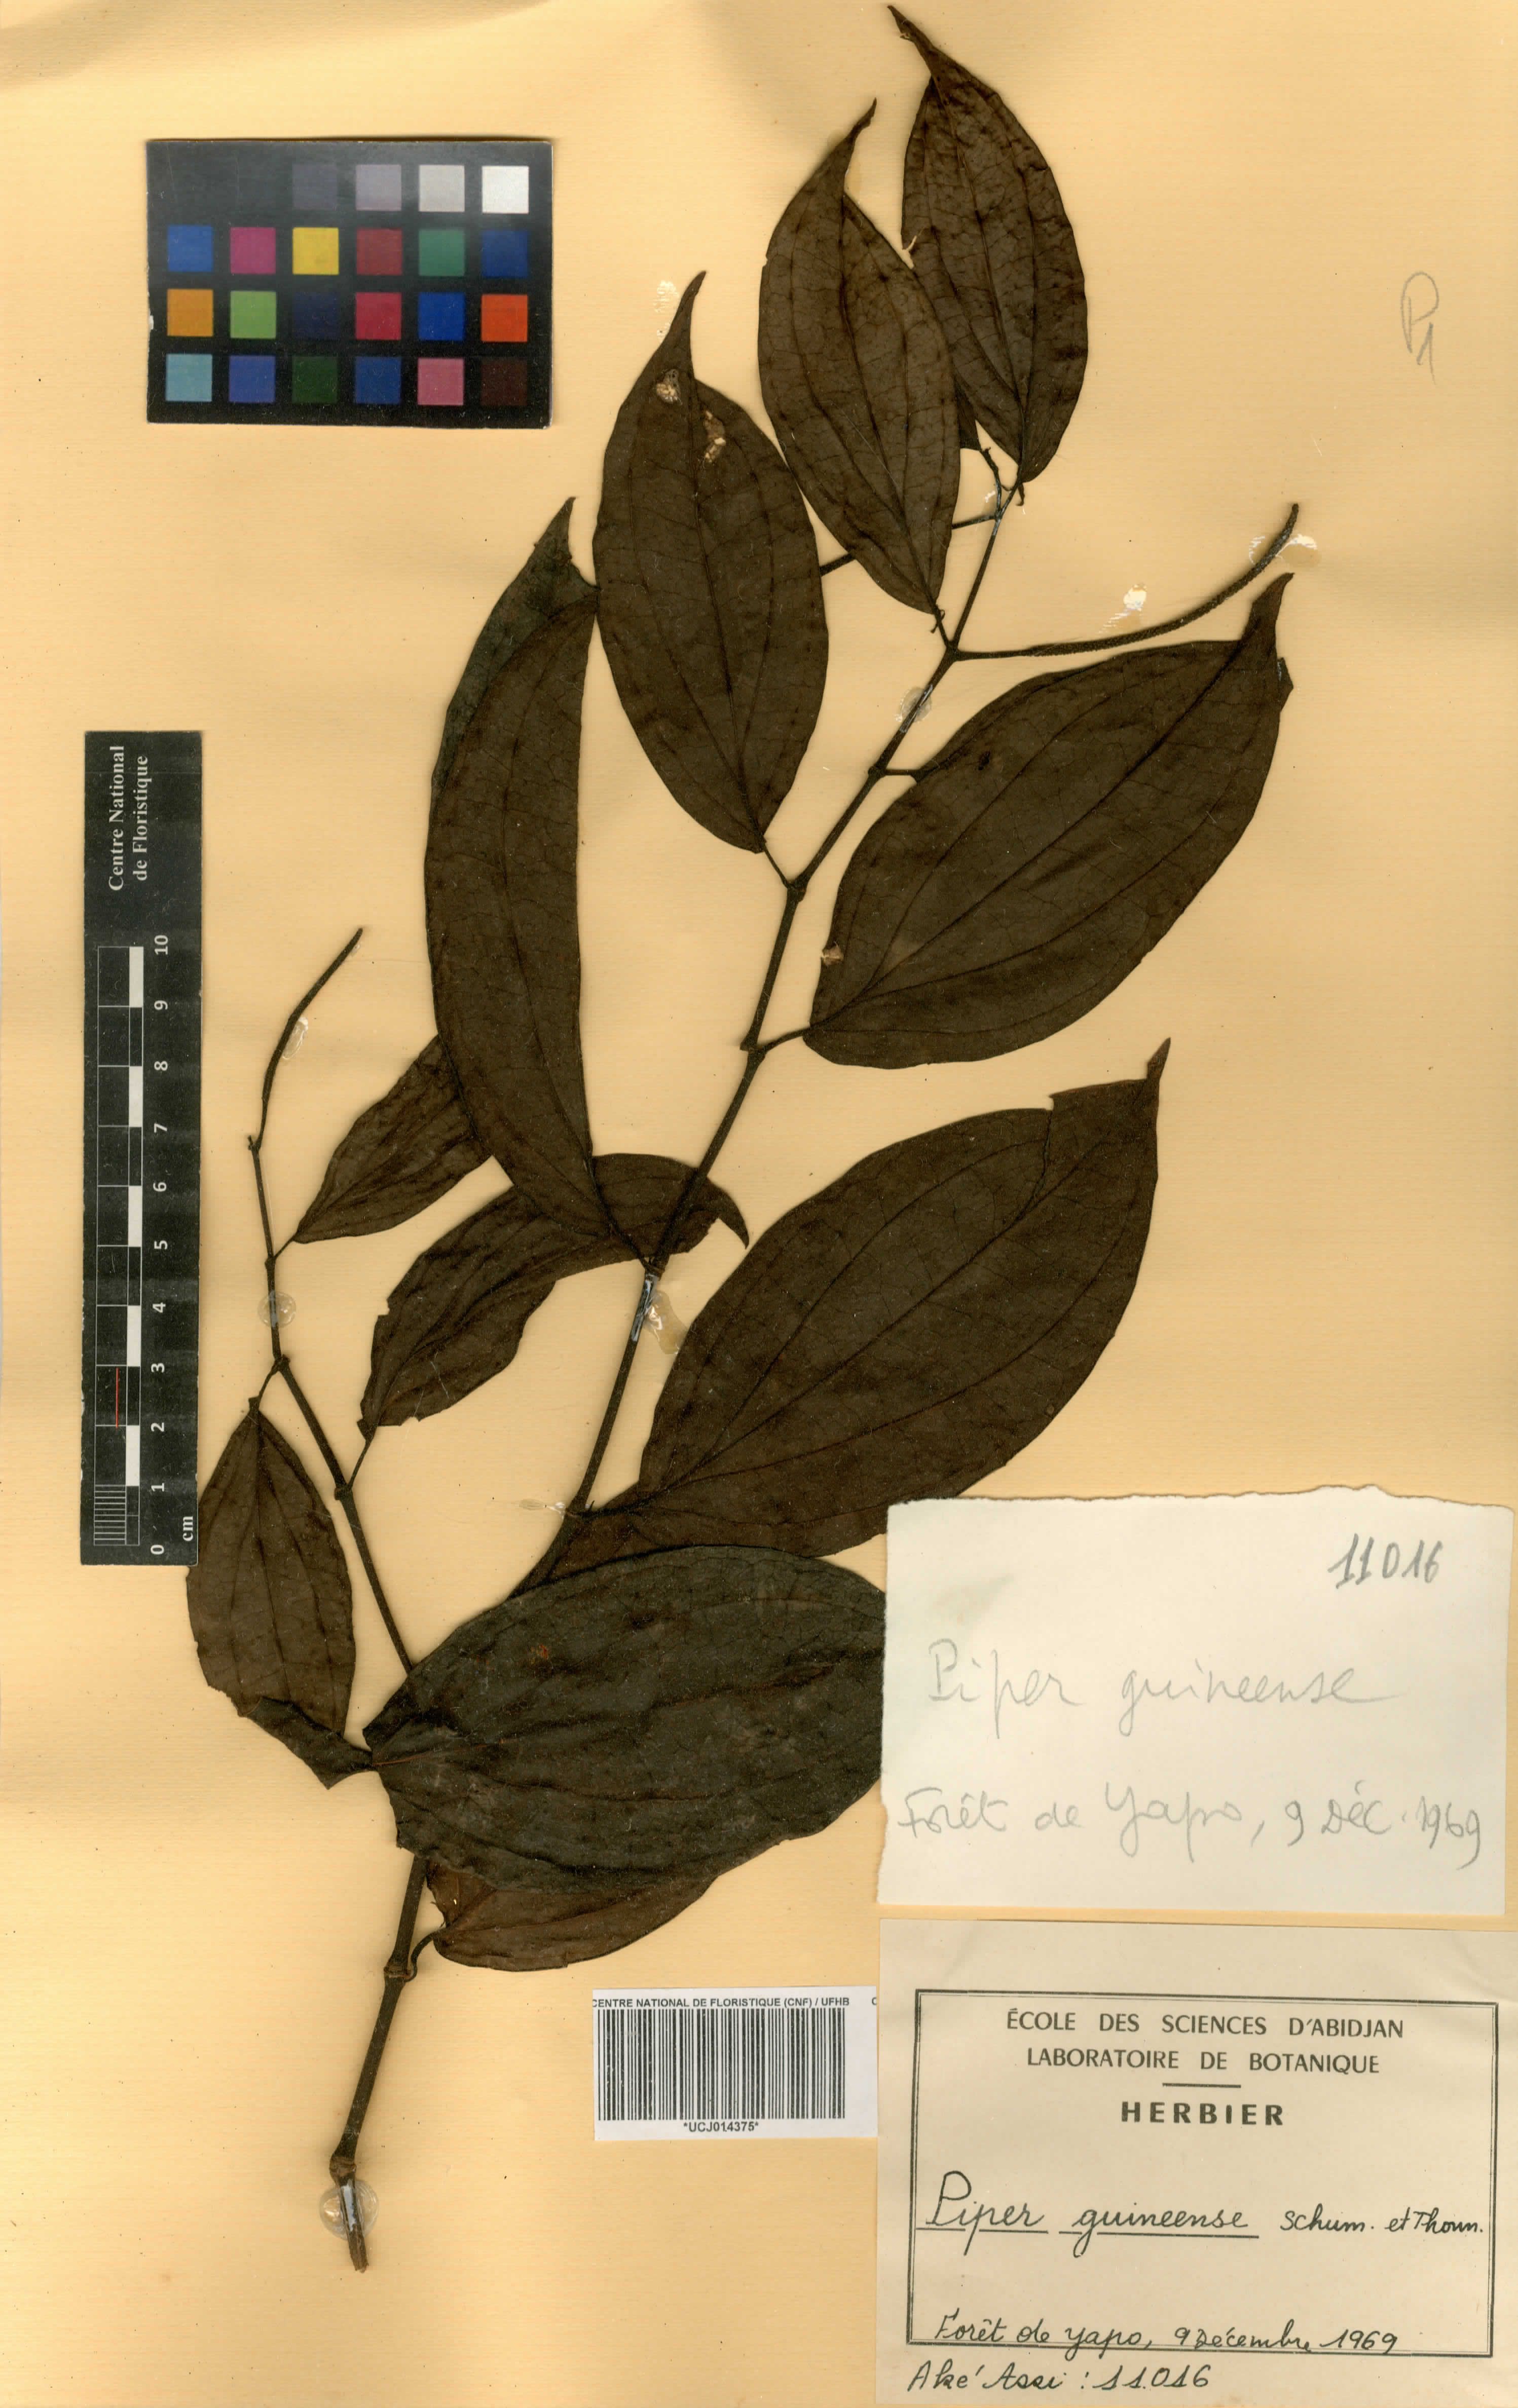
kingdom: Plantae
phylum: Tracheophyta
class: Magnoliopsida
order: Piperales
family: Piperaceae
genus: Piper
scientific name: Piper guineense
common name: Benin pepper
